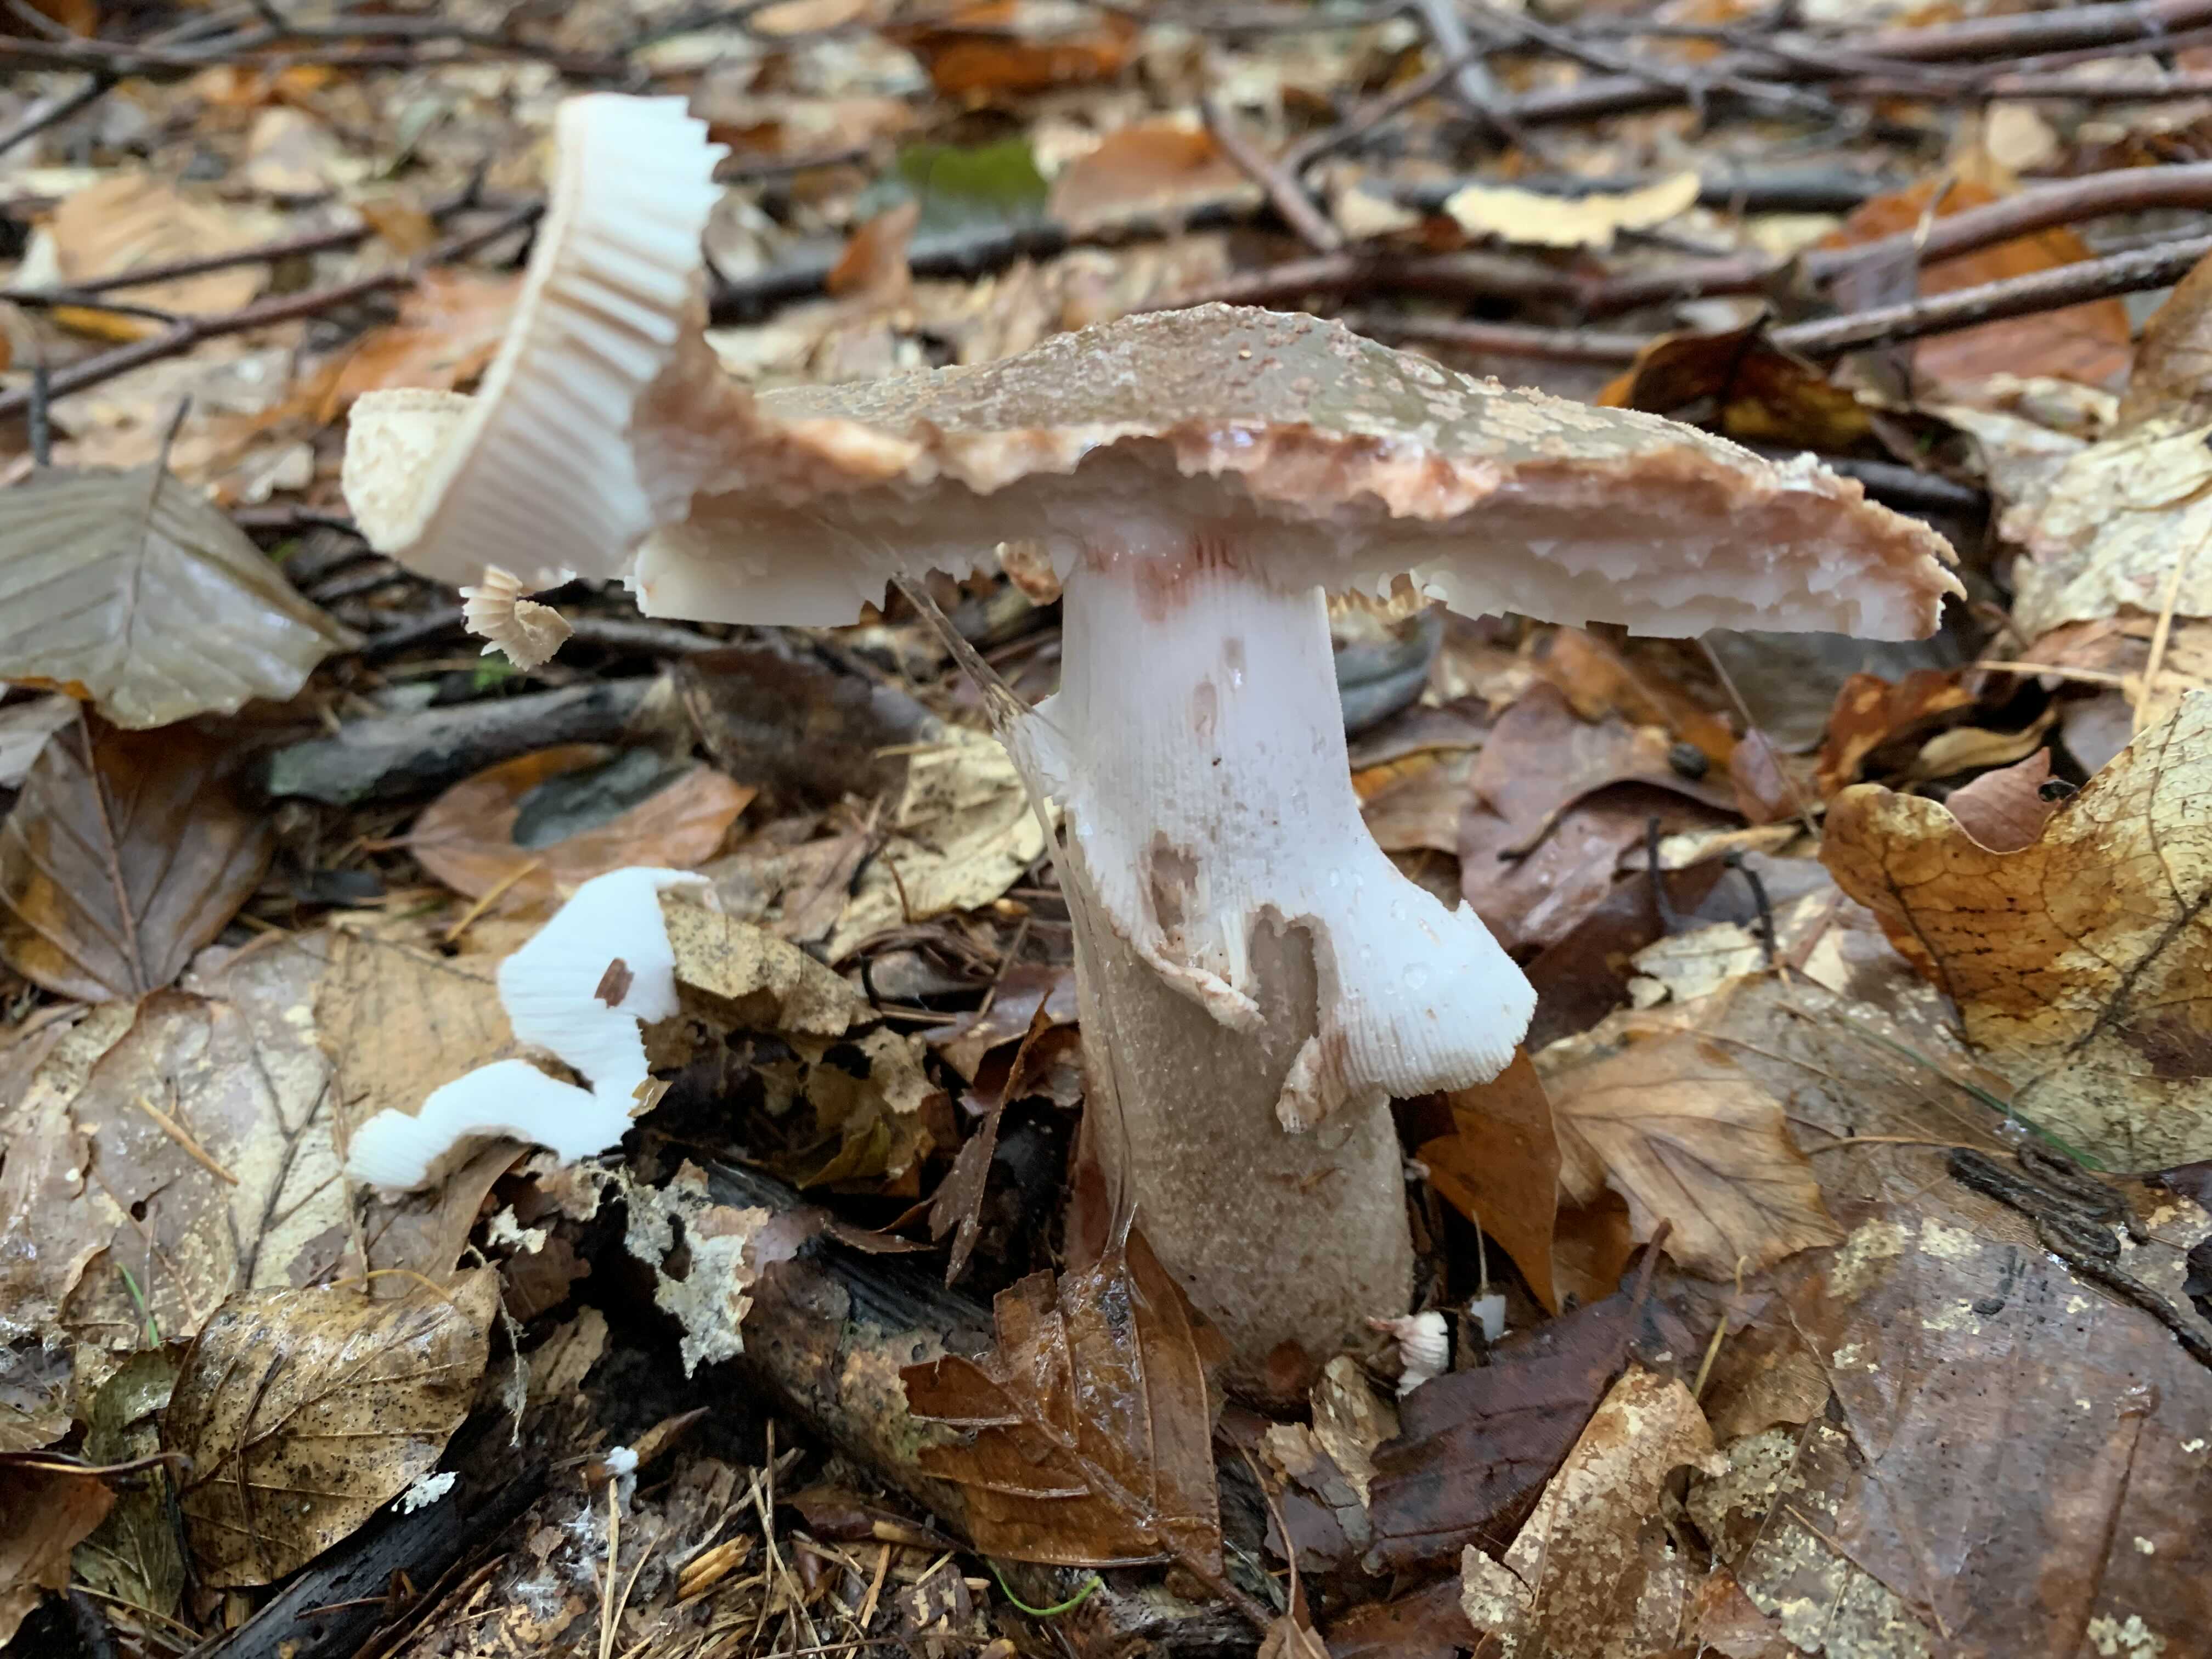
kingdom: Fungi
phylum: Basidiomycota
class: Agaricomycetes
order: Agaricales
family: Amanitaceae
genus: Amanita
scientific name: Amanita rubescens
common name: rødmende fluesvamp
